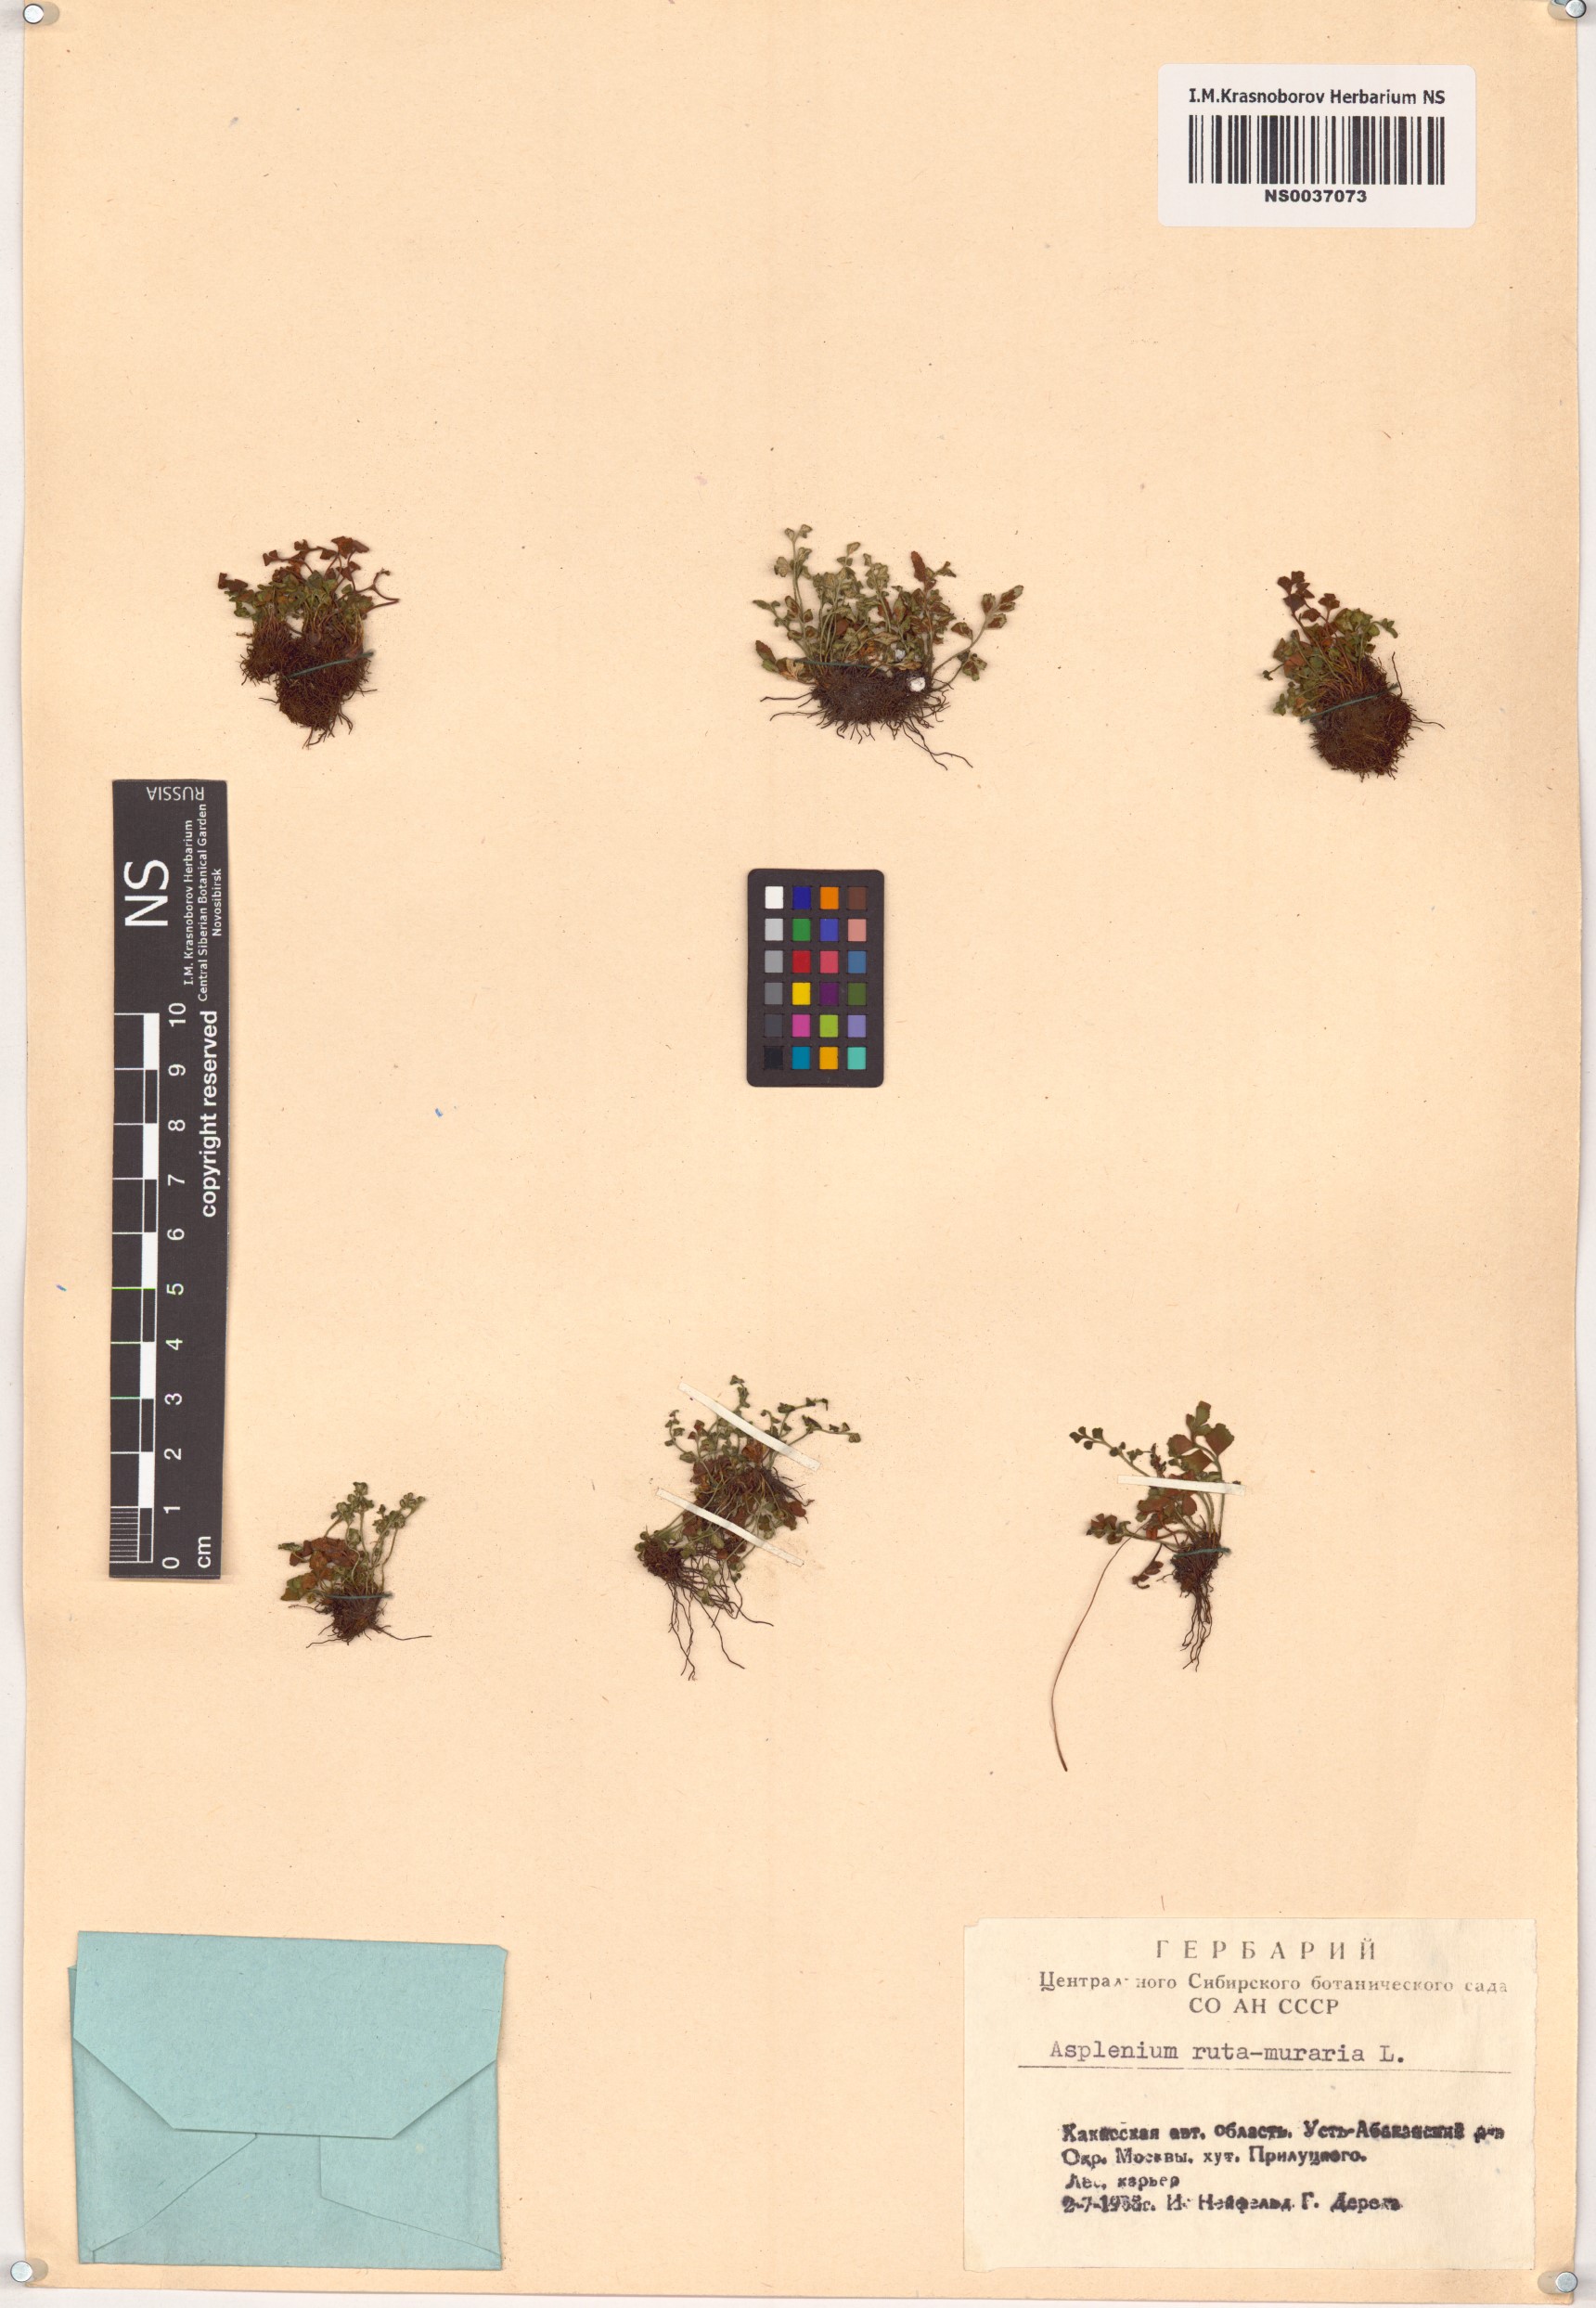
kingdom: Plantae
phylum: Tracheophyta
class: Polypodiopsida
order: Polypodiales
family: Aspleniaceae
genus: Asplenium
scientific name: Asplenium ruta-muraria
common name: Wall-rue
